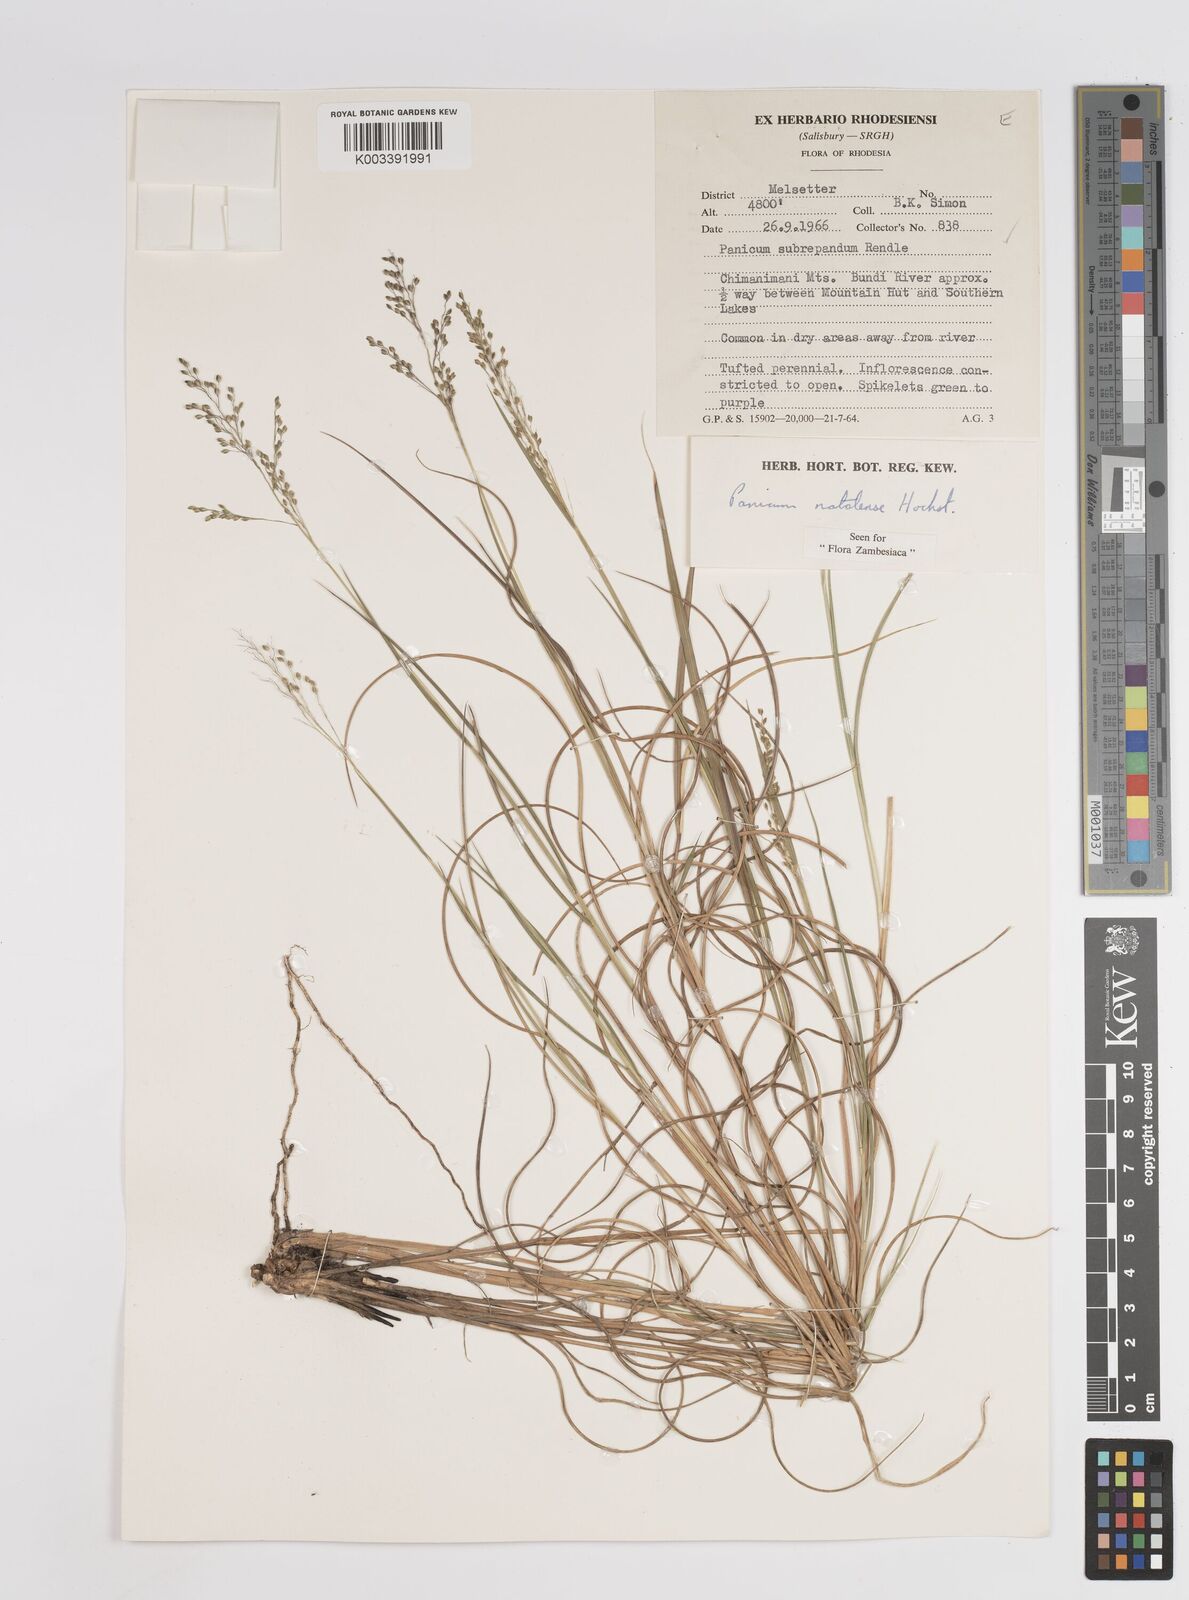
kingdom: Plantae
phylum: Tracheophyta
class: Liliopsida
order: Poales
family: Poaceae
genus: Trichanthecium
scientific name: Trichanthecium natalense
